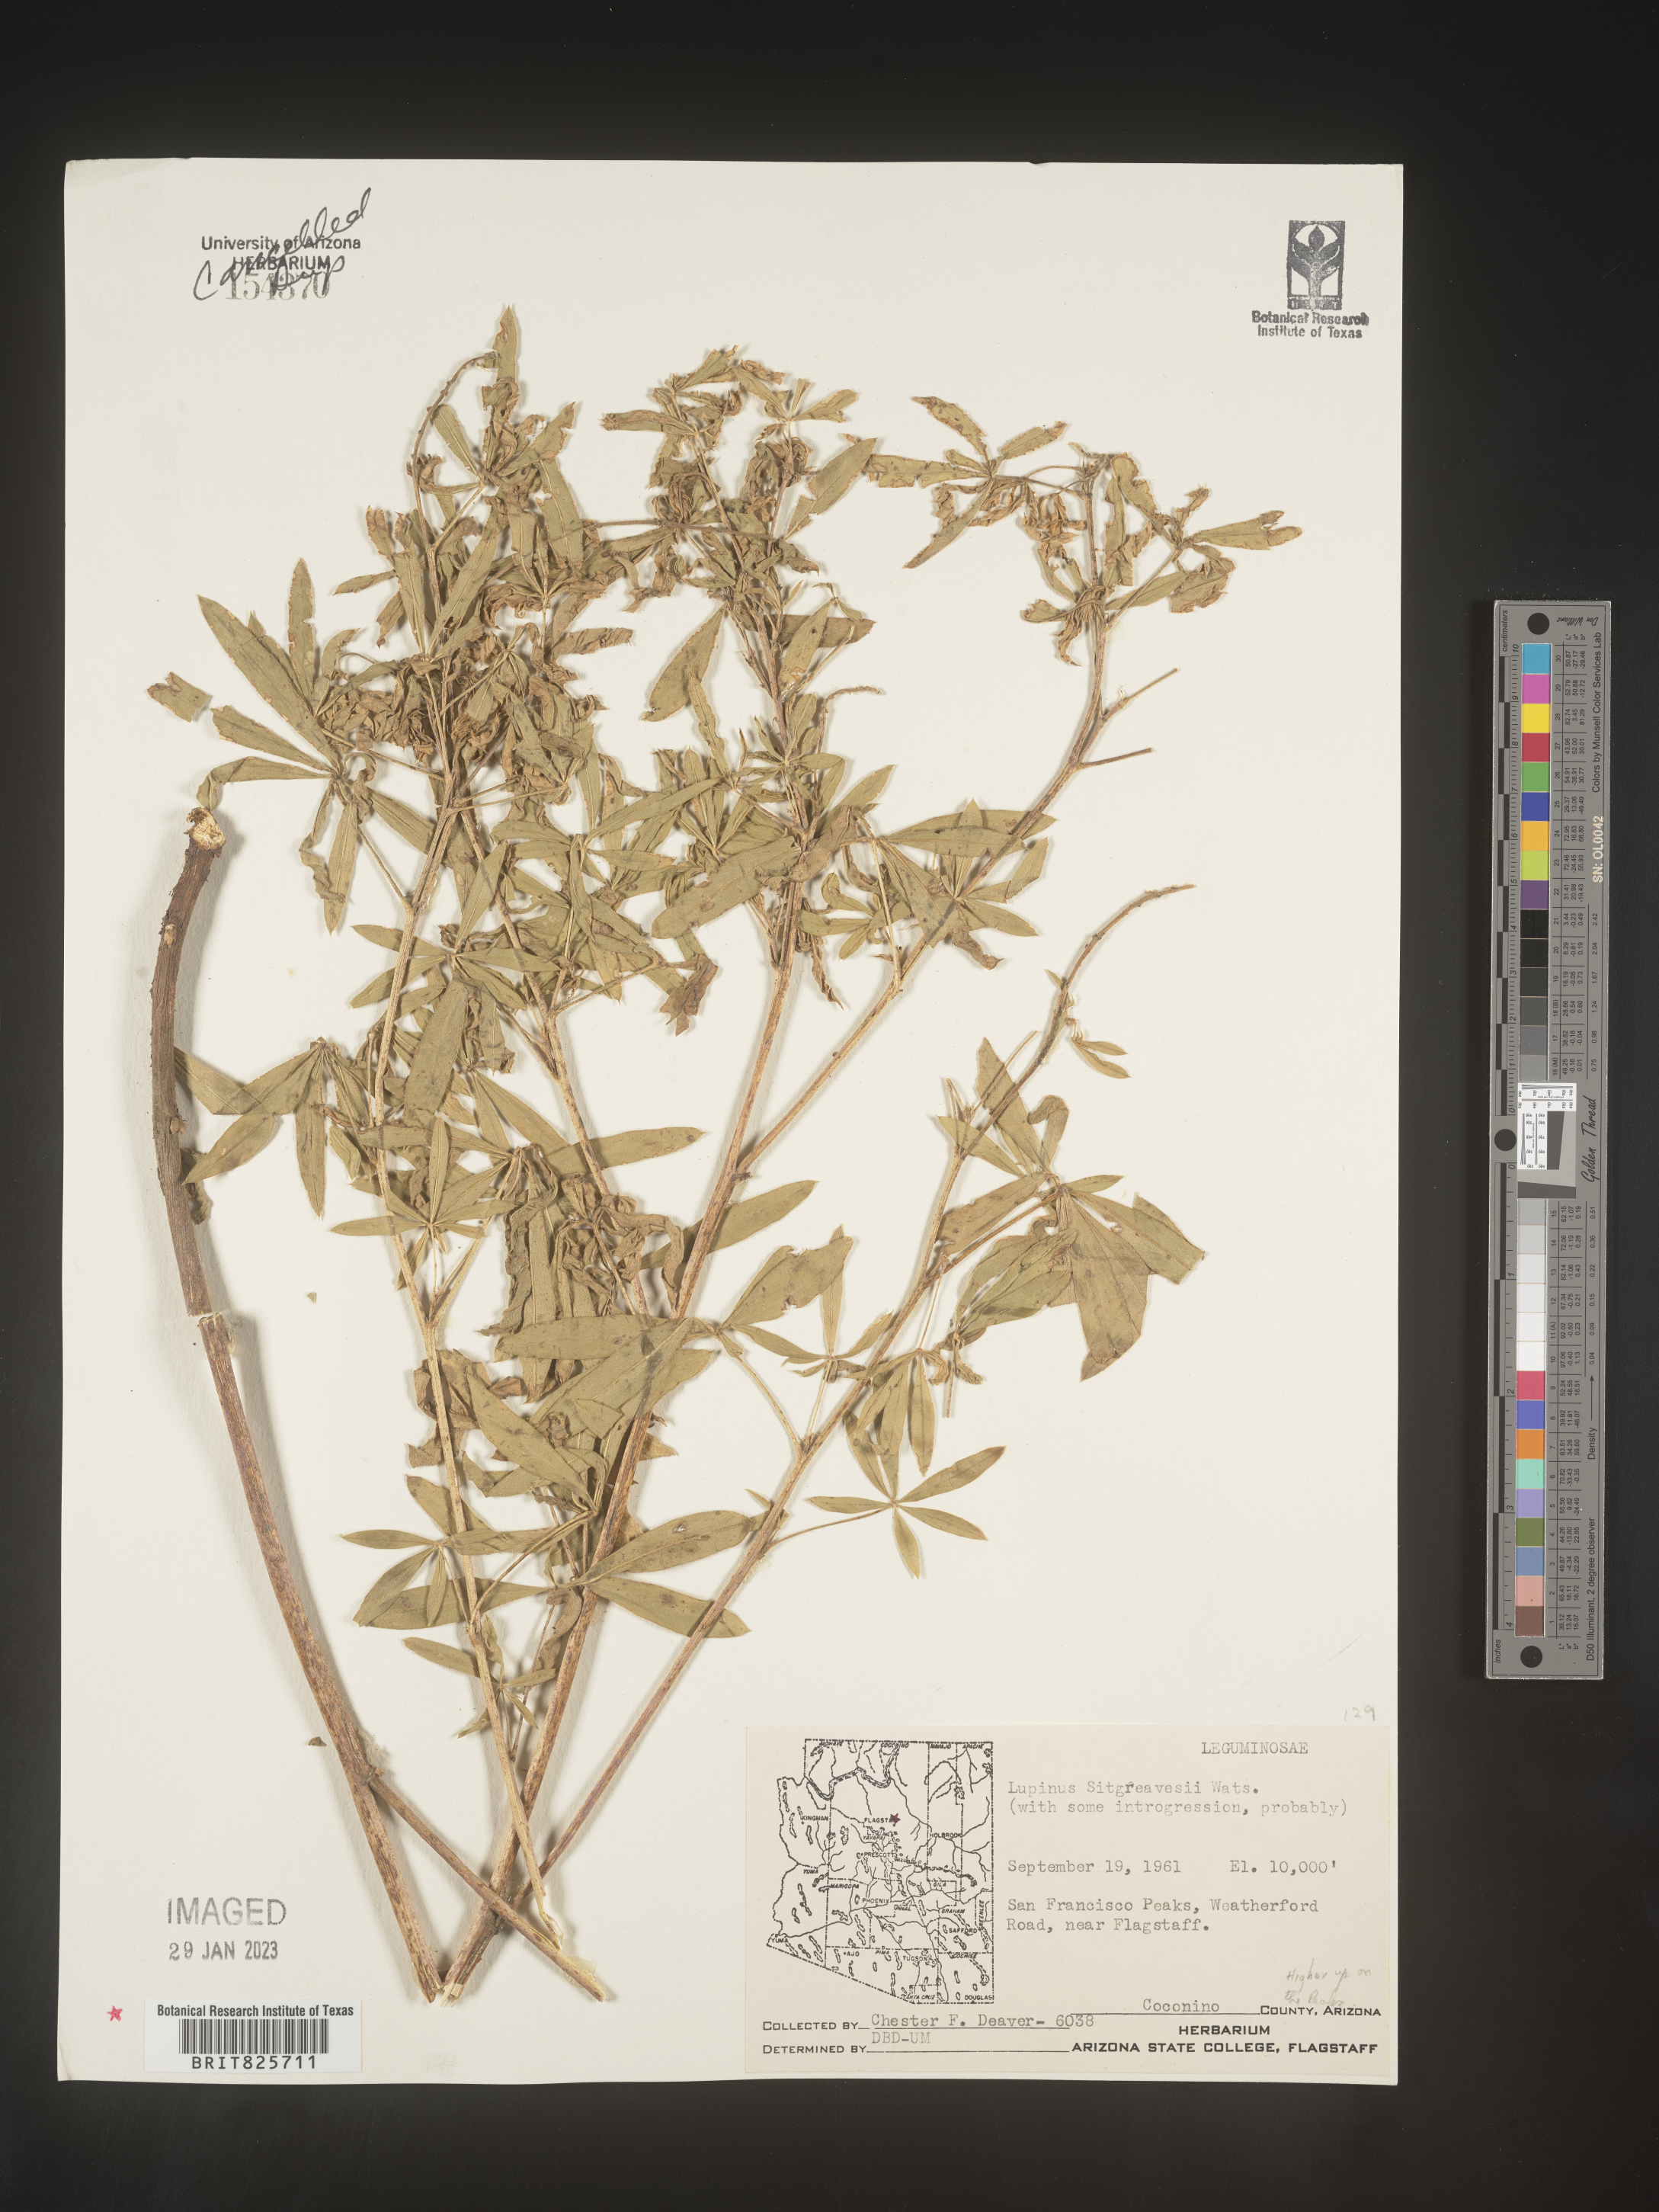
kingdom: Plantae
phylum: Tracheophyta
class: Magnoliopsida
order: Fabales
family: Fabaceae
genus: Lupinus
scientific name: Lupinus
